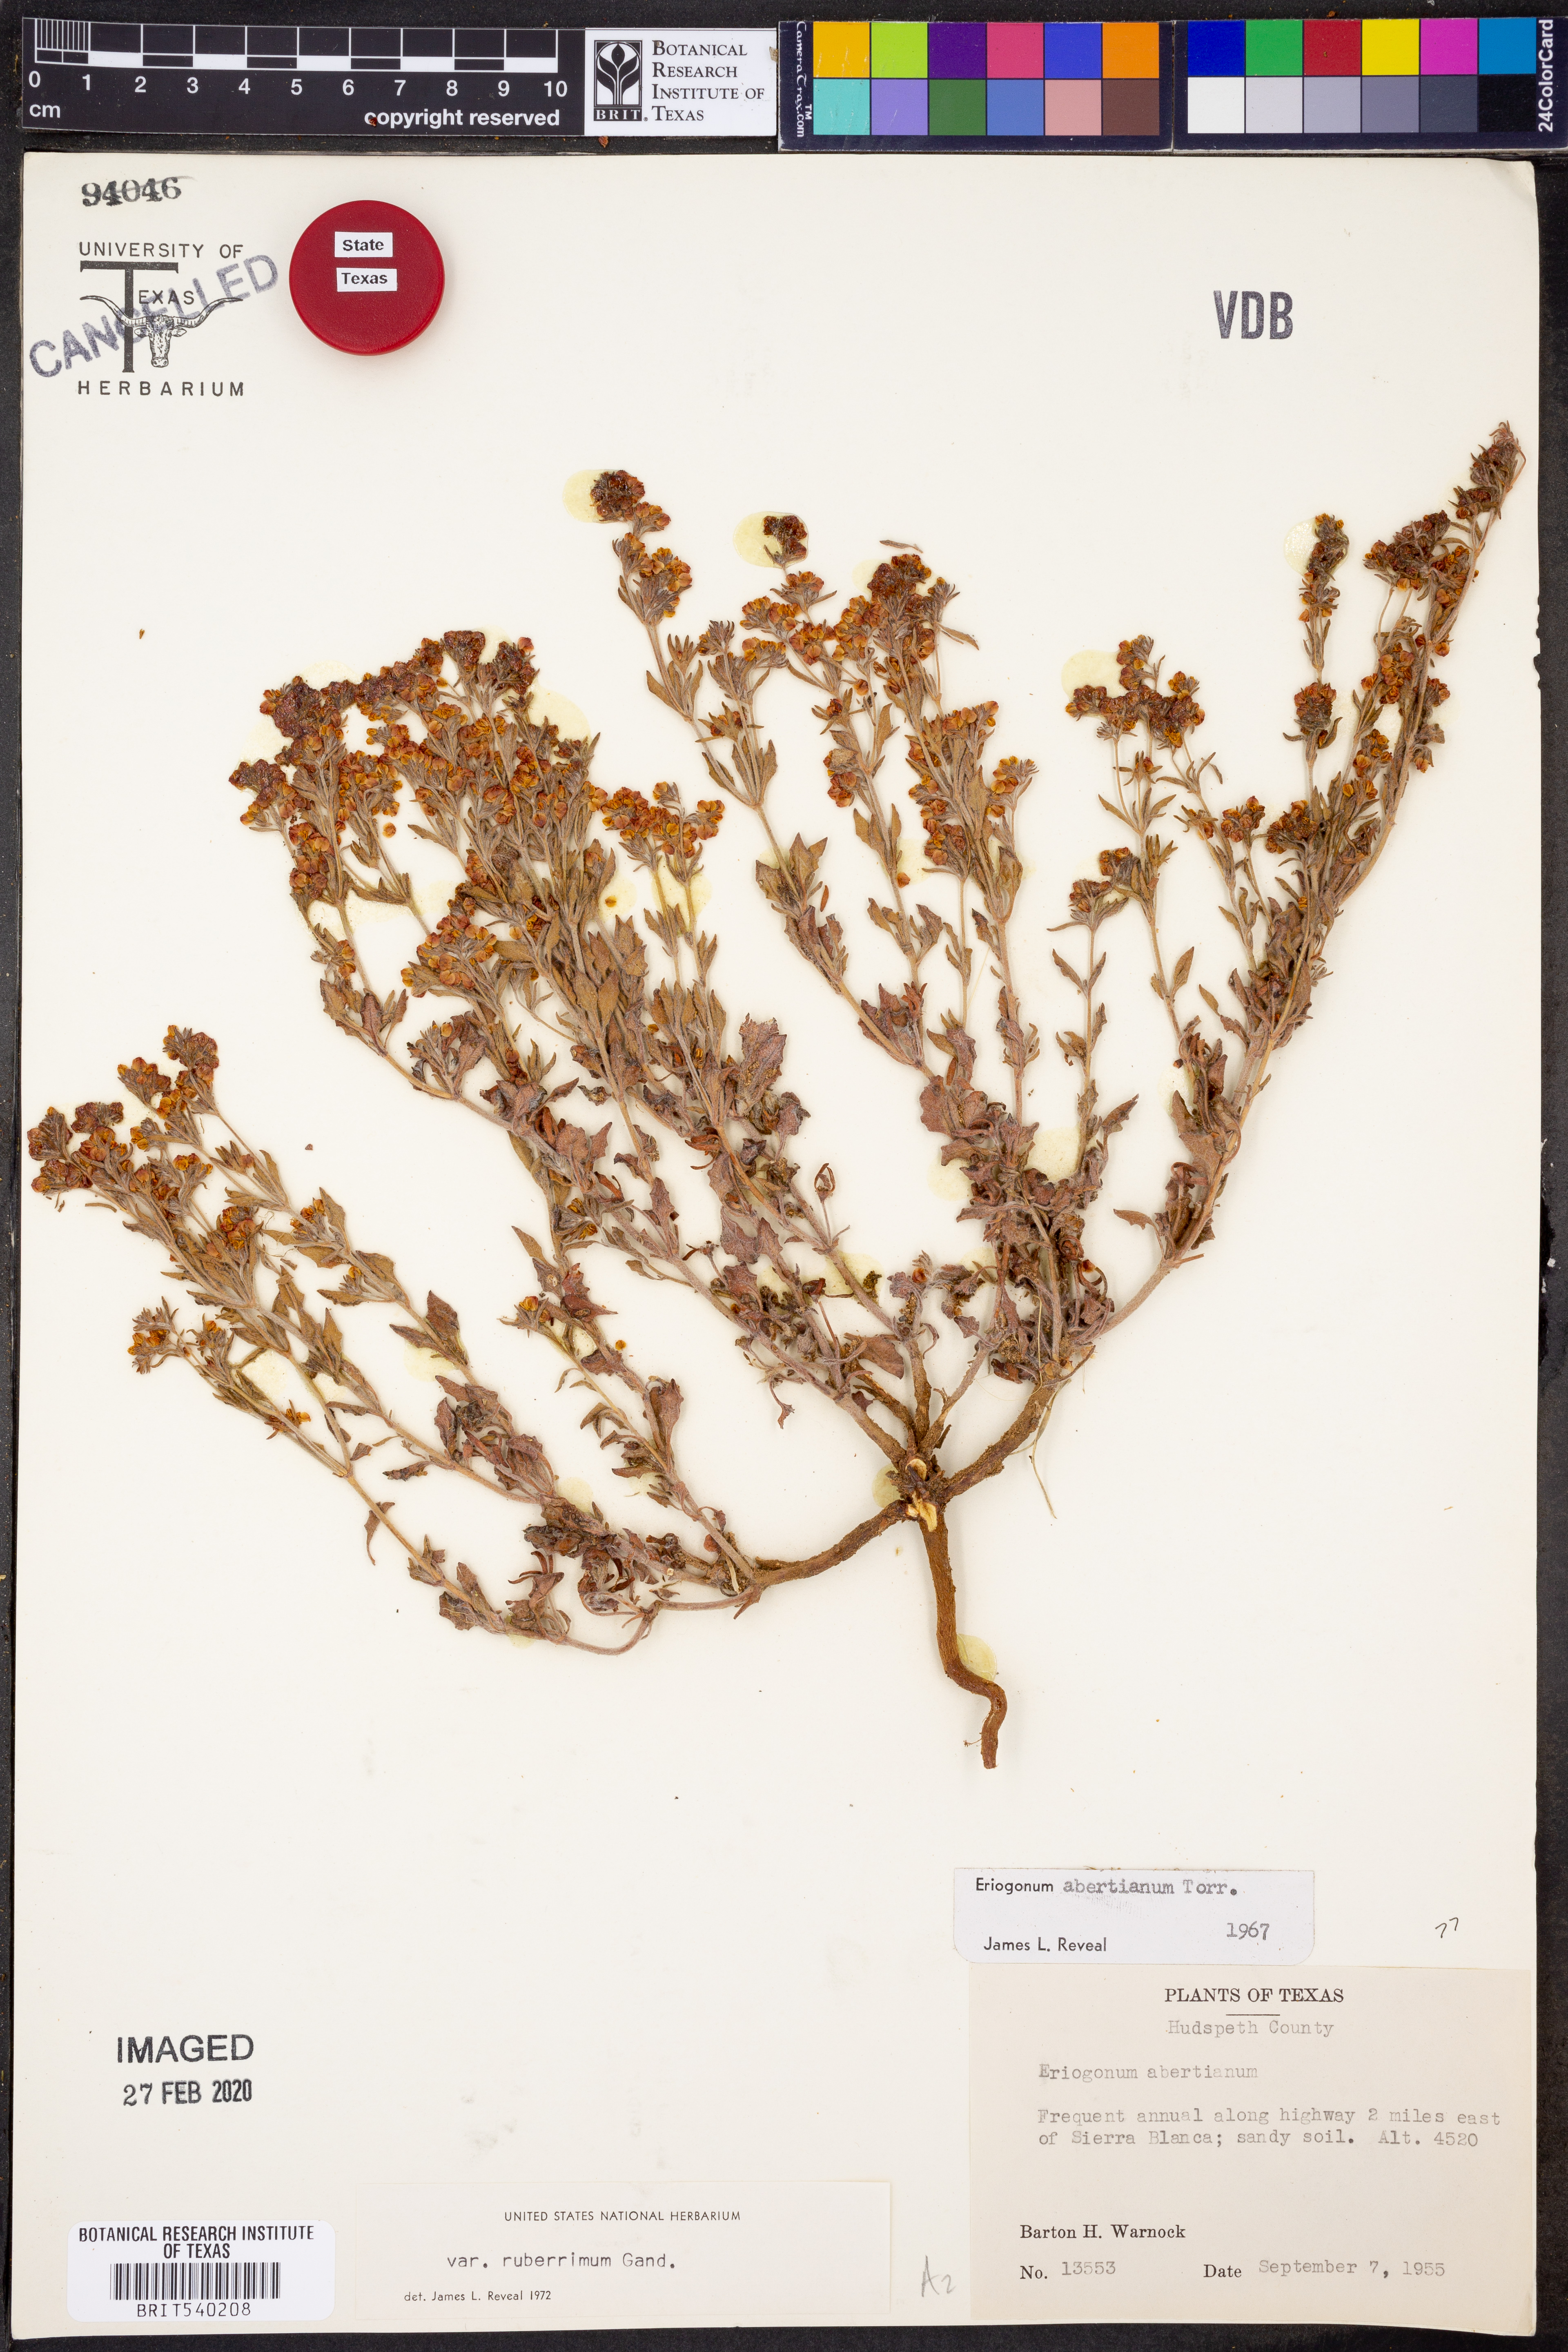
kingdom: Plantae
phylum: Tracheophyta
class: Magnoliopsida
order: Caryophyllales
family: Polygonaceae
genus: Eriogonum
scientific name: Eriogonum abertianum
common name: Abert's wild buckwheat
